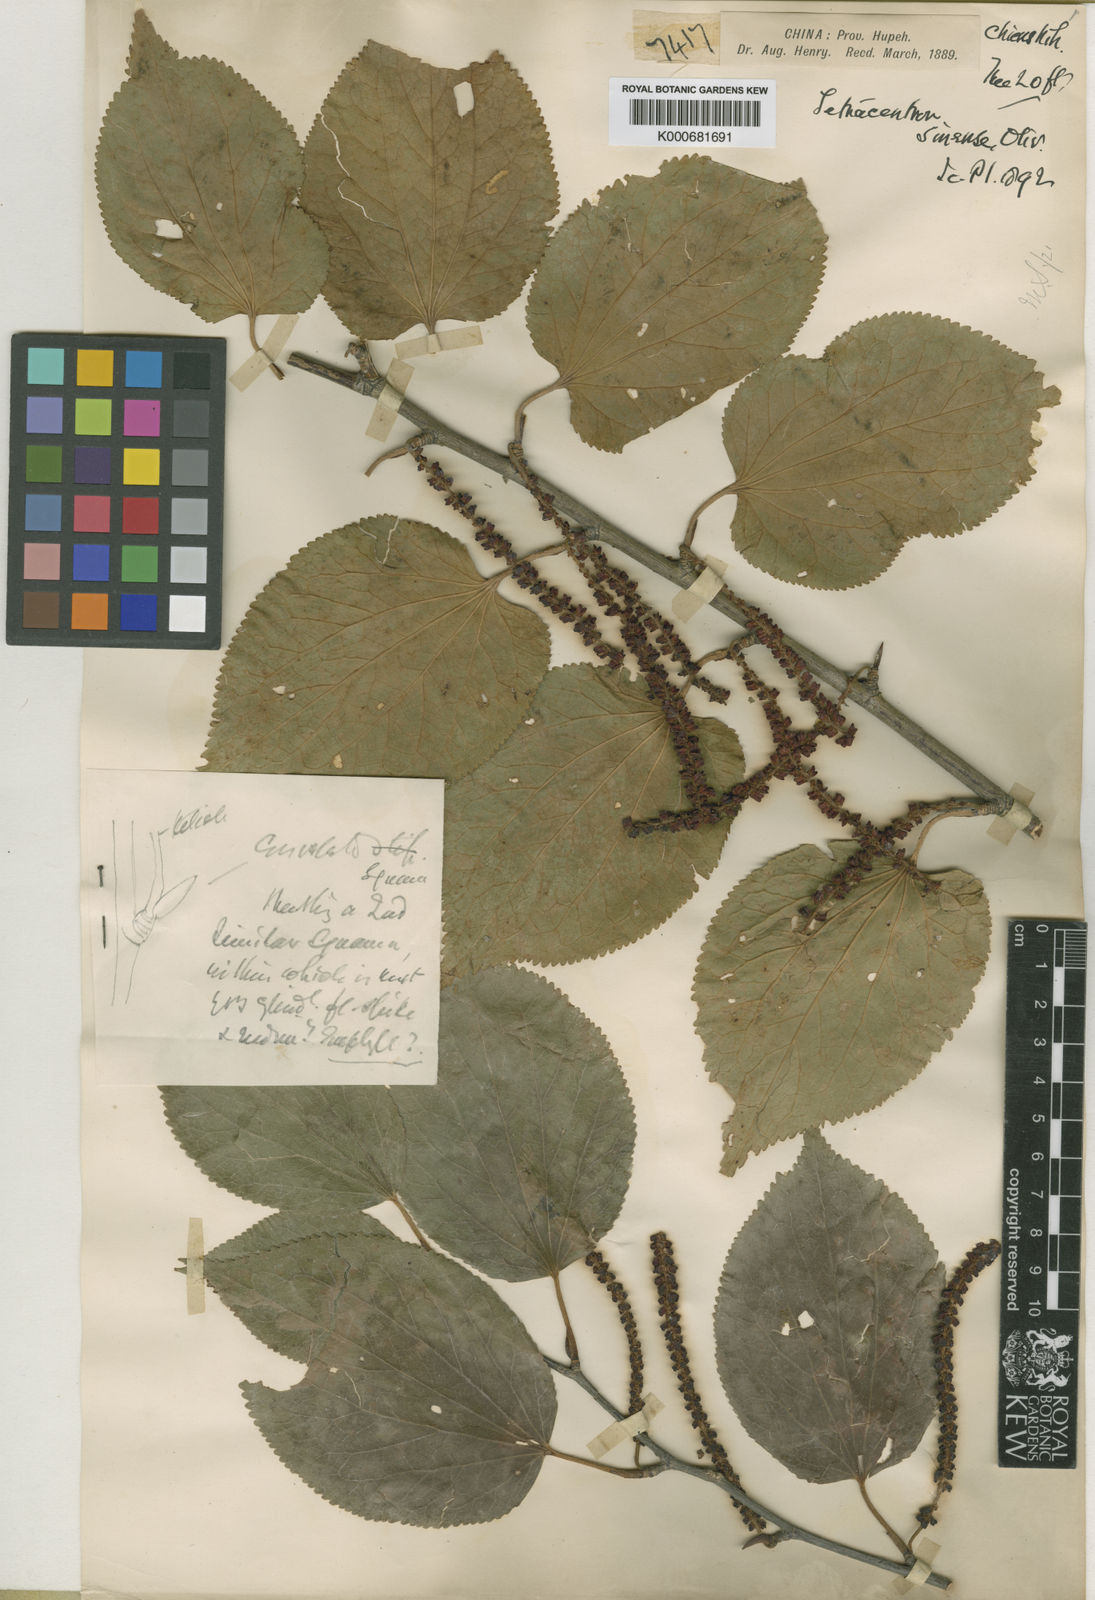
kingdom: Plantae
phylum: Tracheophyta
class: Magnoliopsida
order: Trochodendrales
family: Trochodendraceae
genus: Tetracentron
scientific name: Tetracentron sinense
